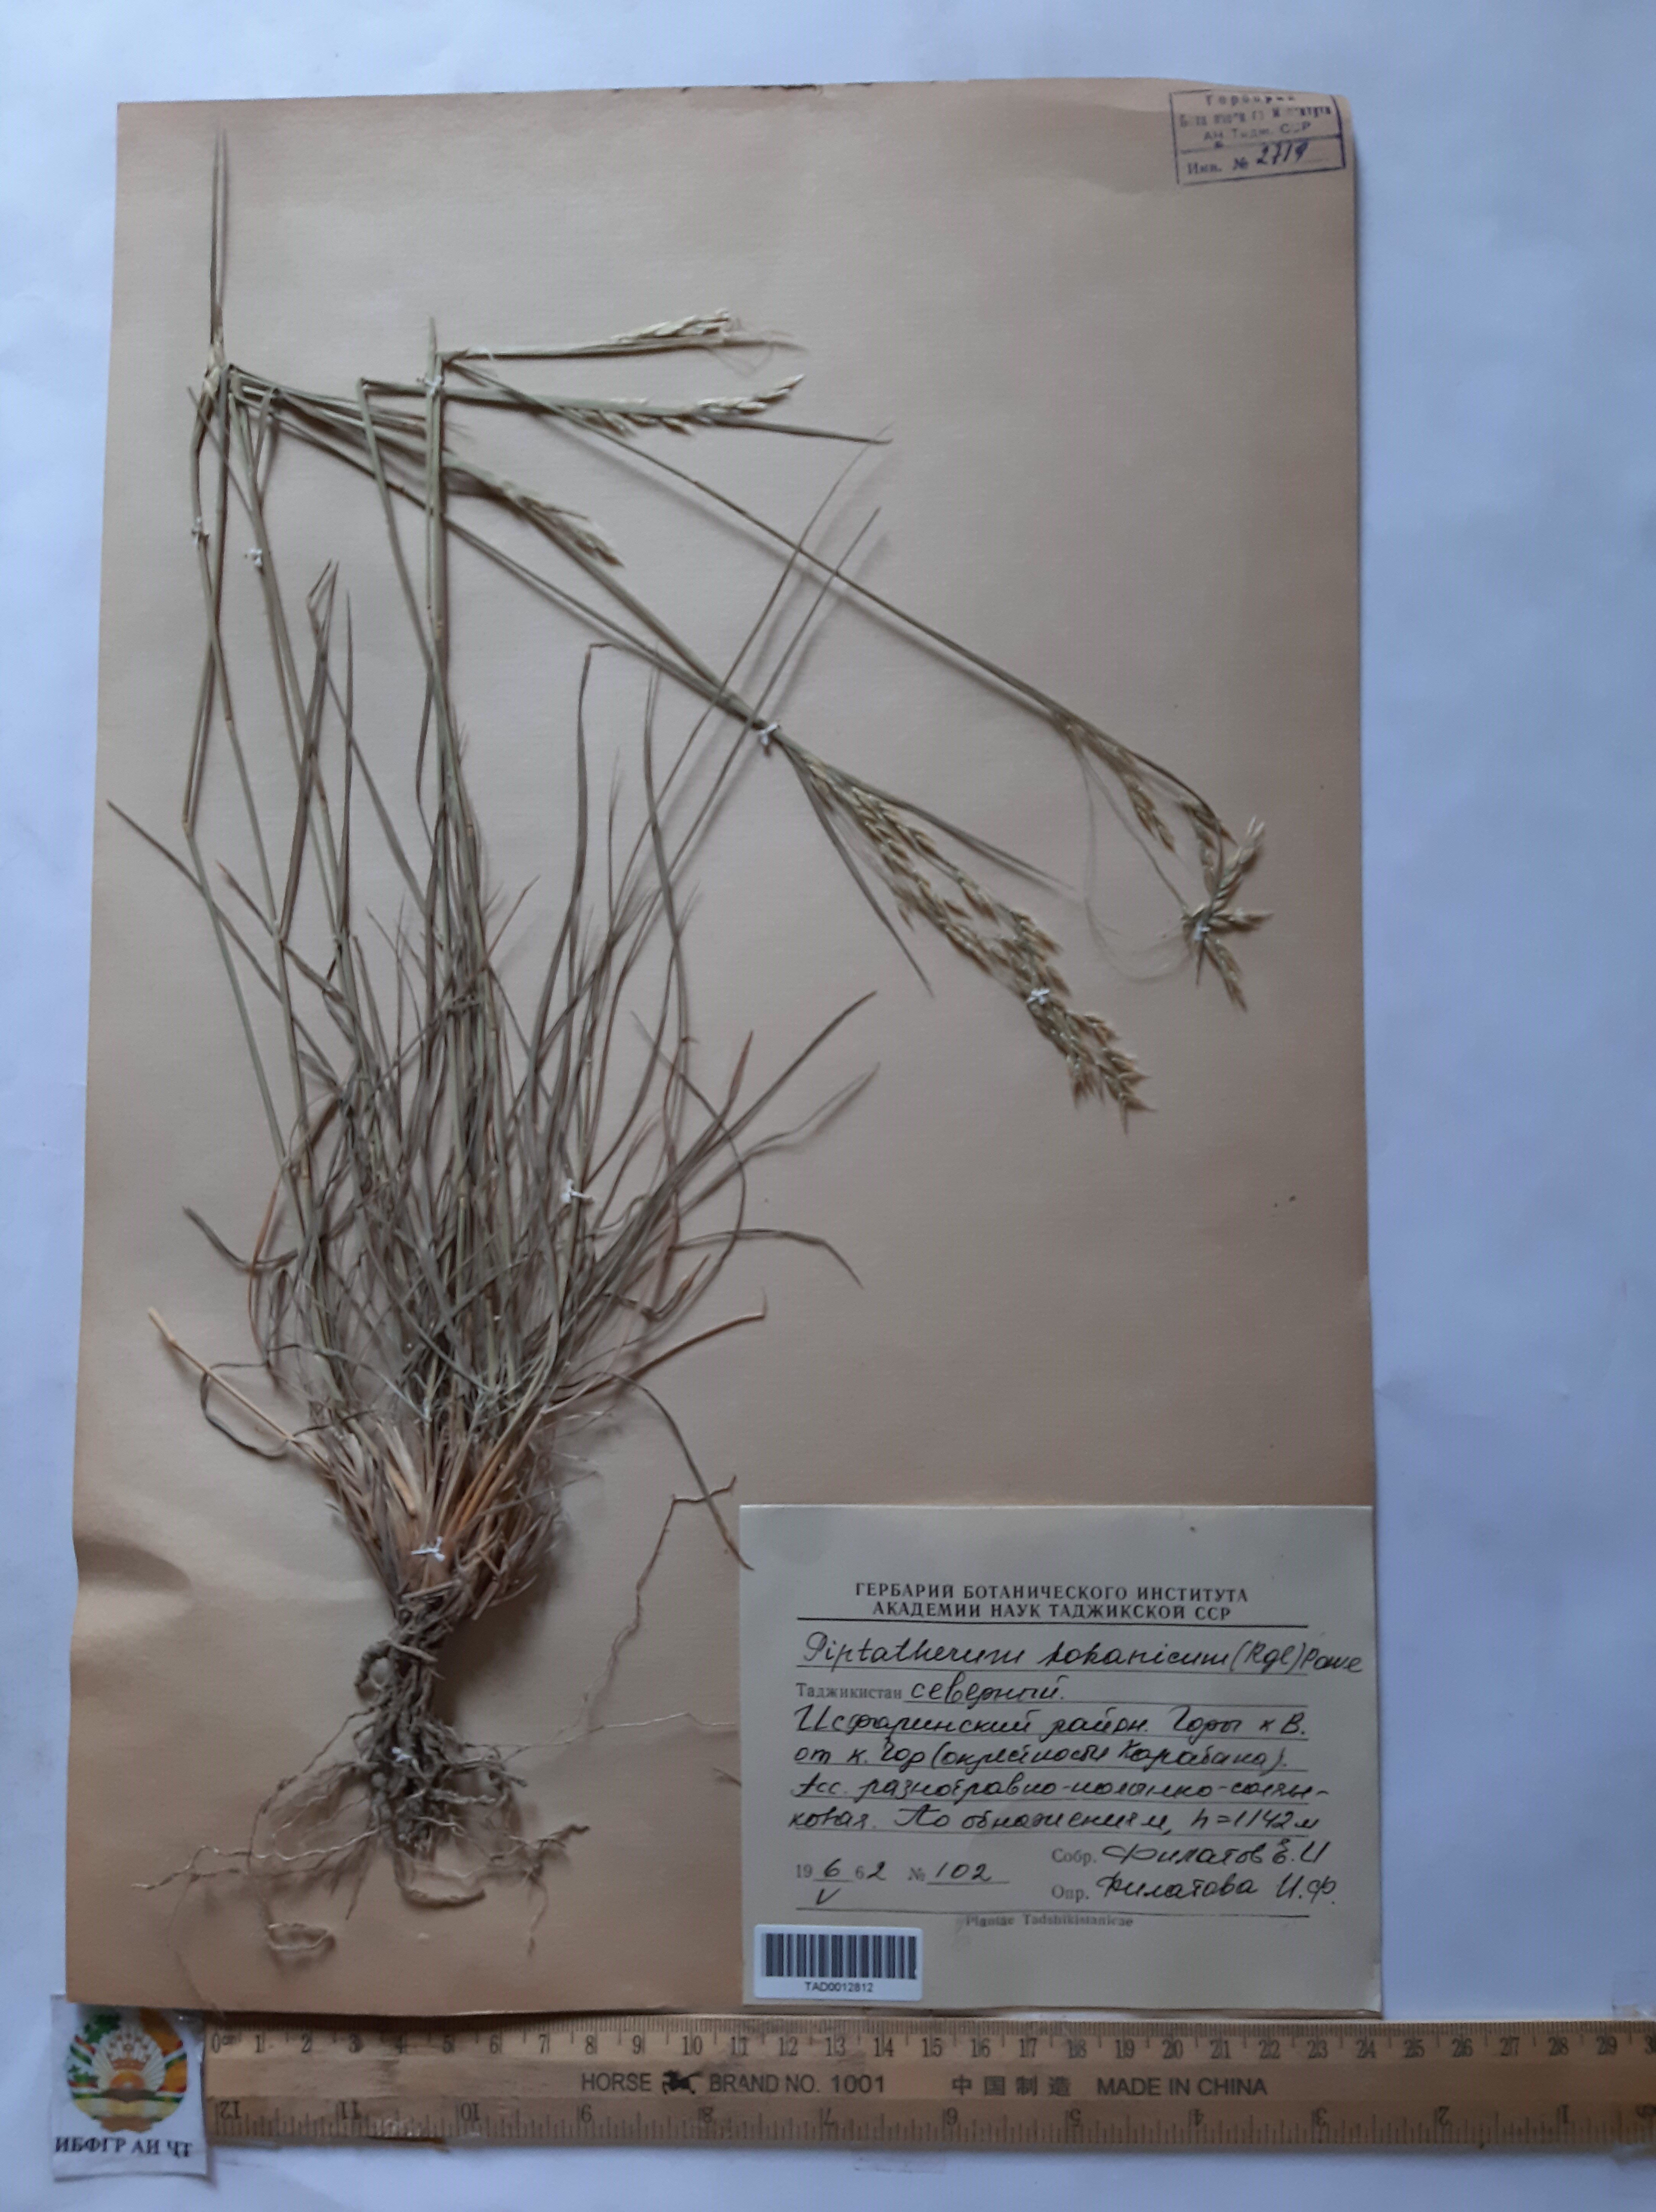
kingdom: Plantae
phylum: Tracheophyta
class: Liliopsida
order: Poales
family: Poaceae
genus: Piptatherum
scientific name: Piptatherum songaricum
